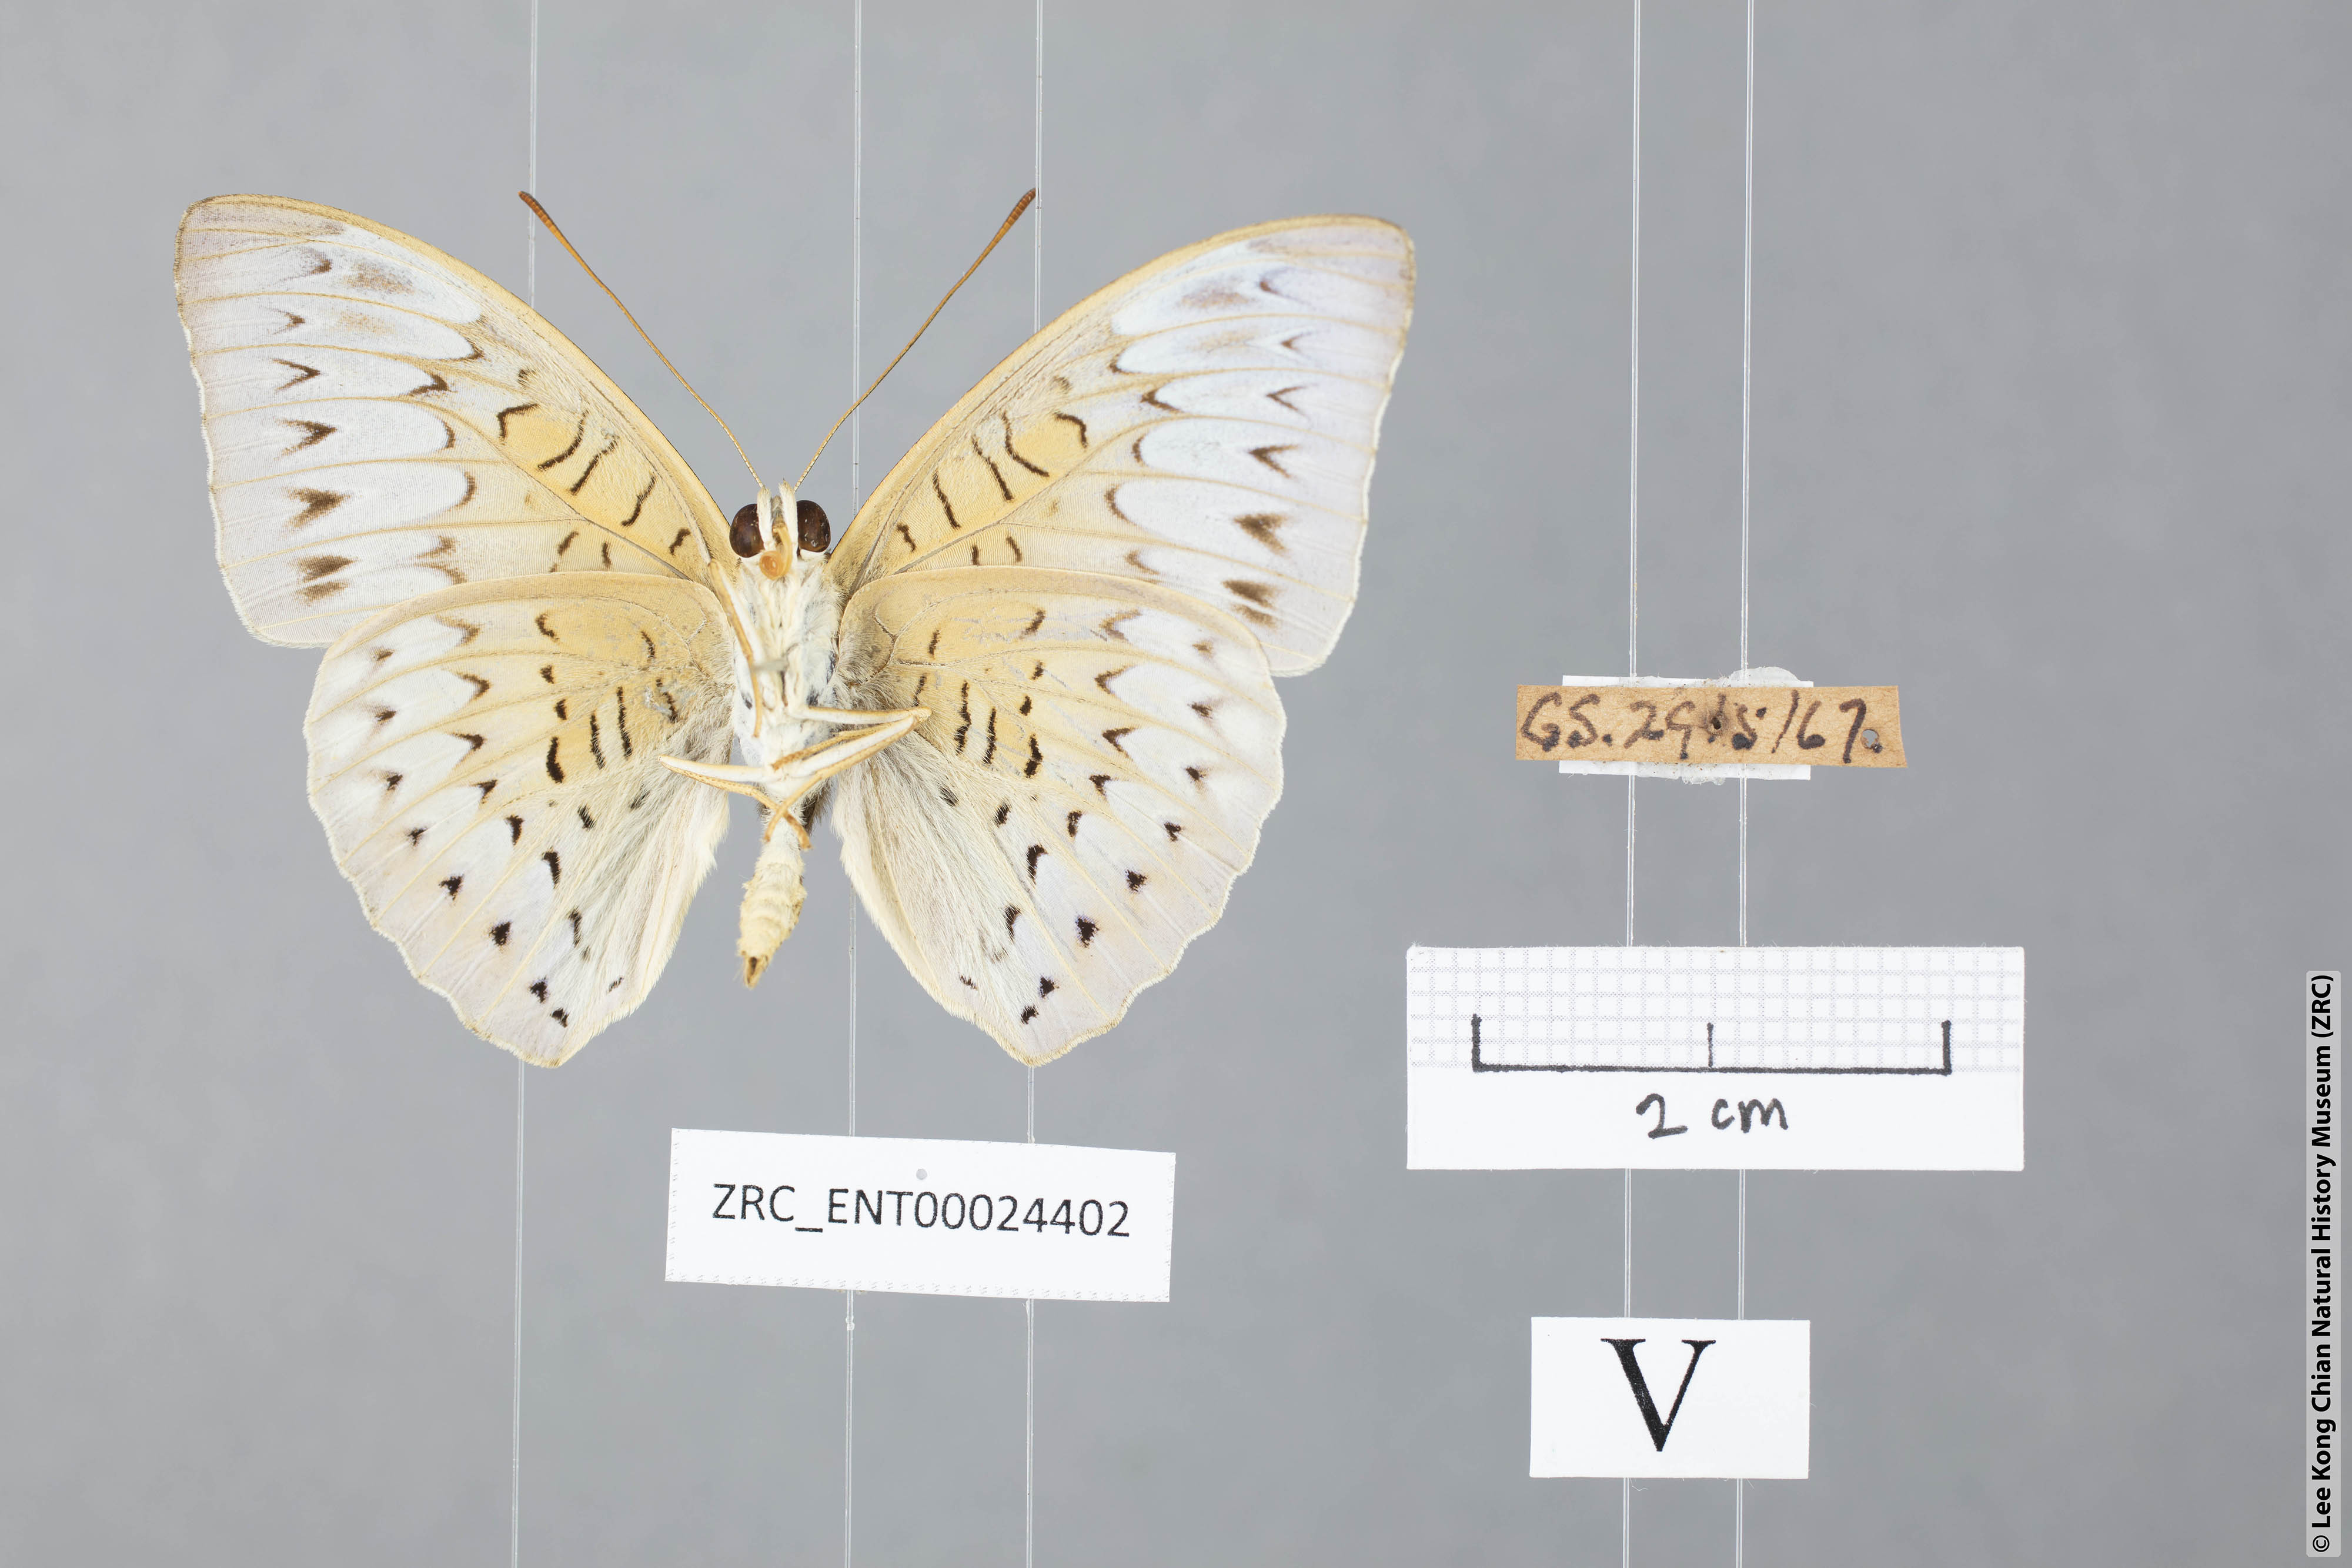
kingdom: Animalia
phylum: Arthropoda
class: Insecta
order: Lepidoptera
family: Nymphalidae
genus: Tanaecia
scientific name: Tanaecia palguna
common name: Long-lined viscount
